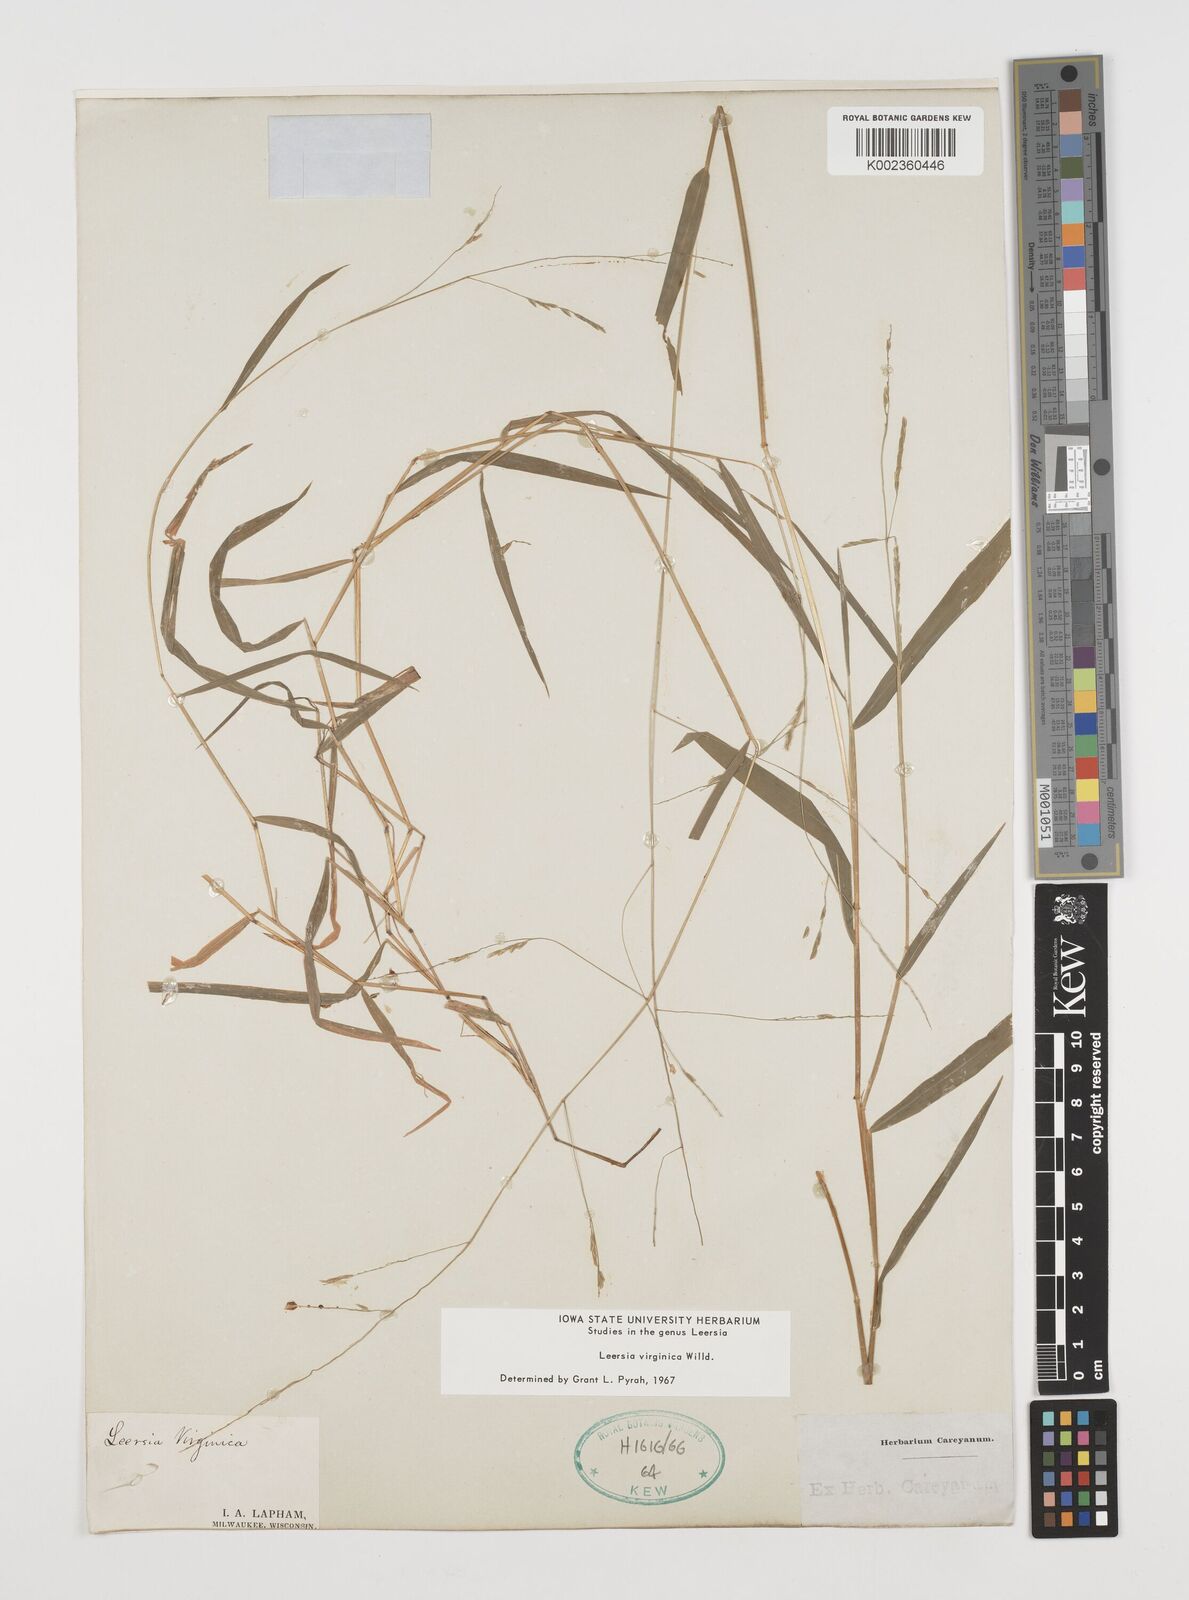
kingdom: Plantae
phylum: Tracheophyta
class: Liliopsida
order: Poales
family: Poaceae
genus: Leersia
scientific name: Leersia virginica
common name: White cutgrass
